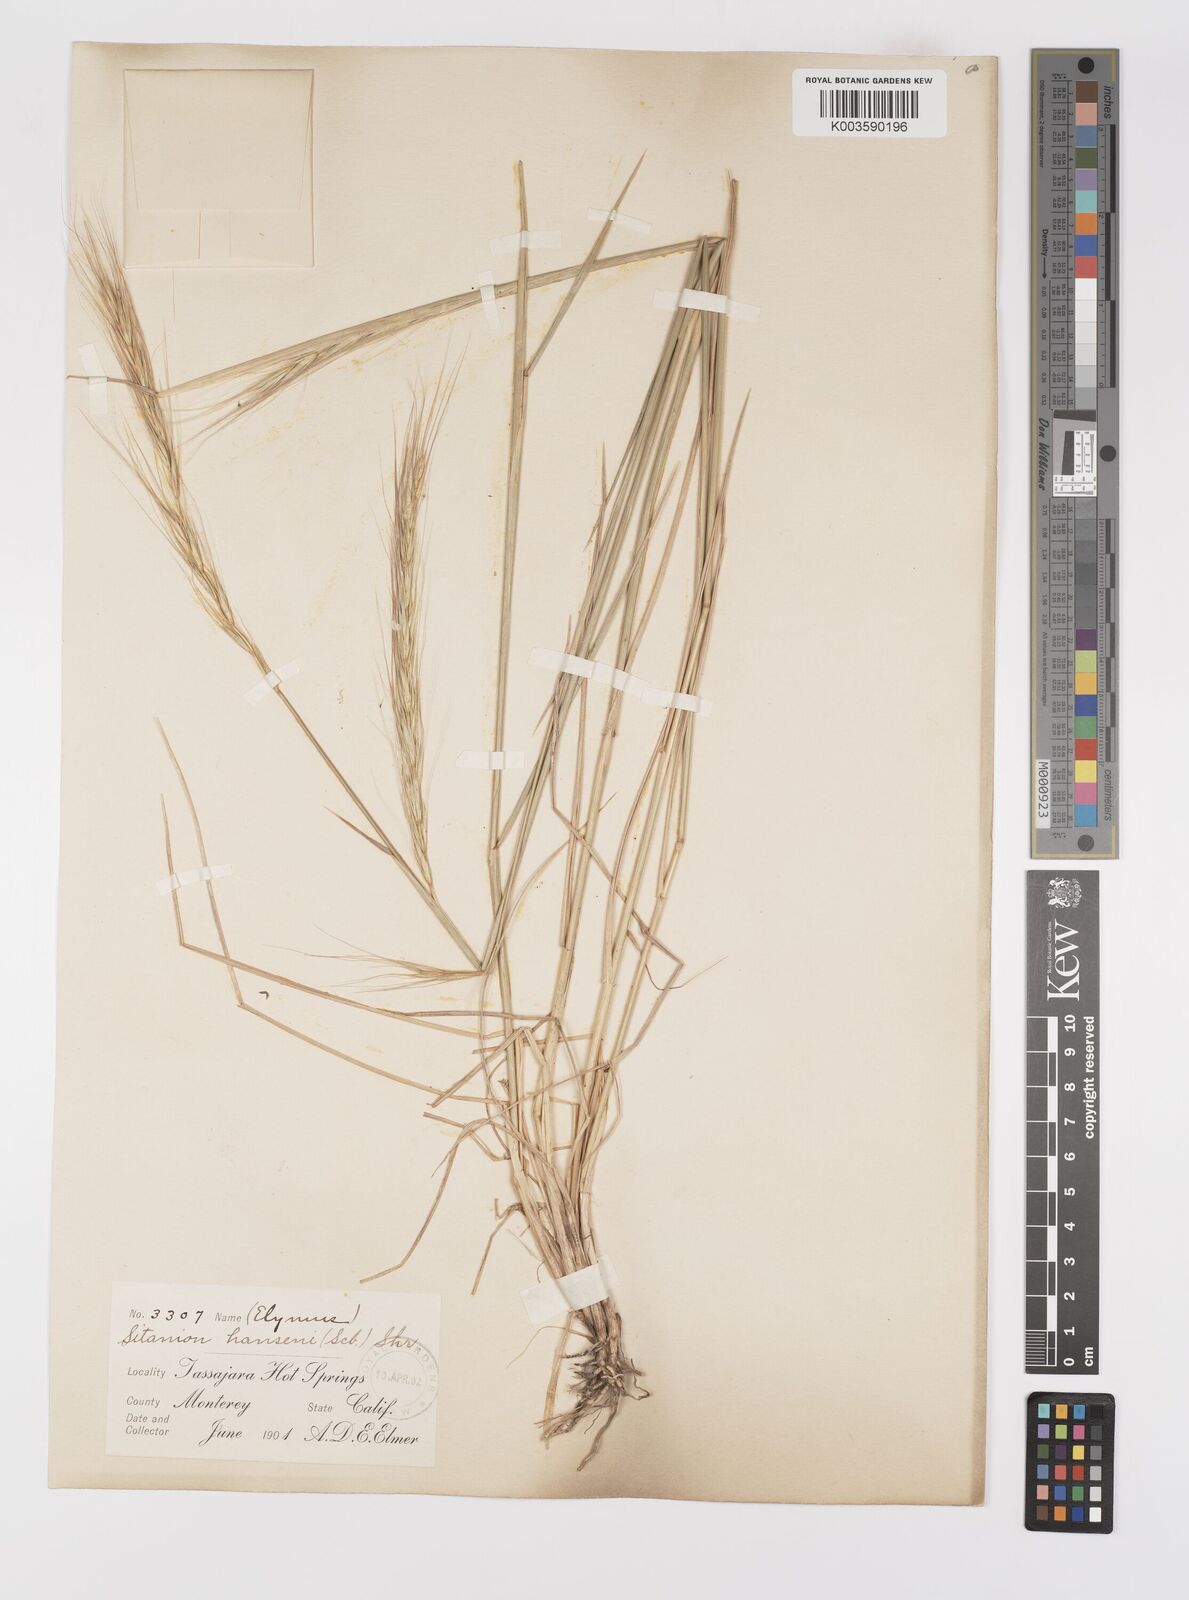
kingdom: Plantae
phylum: Tracheophyta
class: Liliopsida
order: Poales
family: Poaceae
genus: Elymus
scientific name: Elymus hansenii
